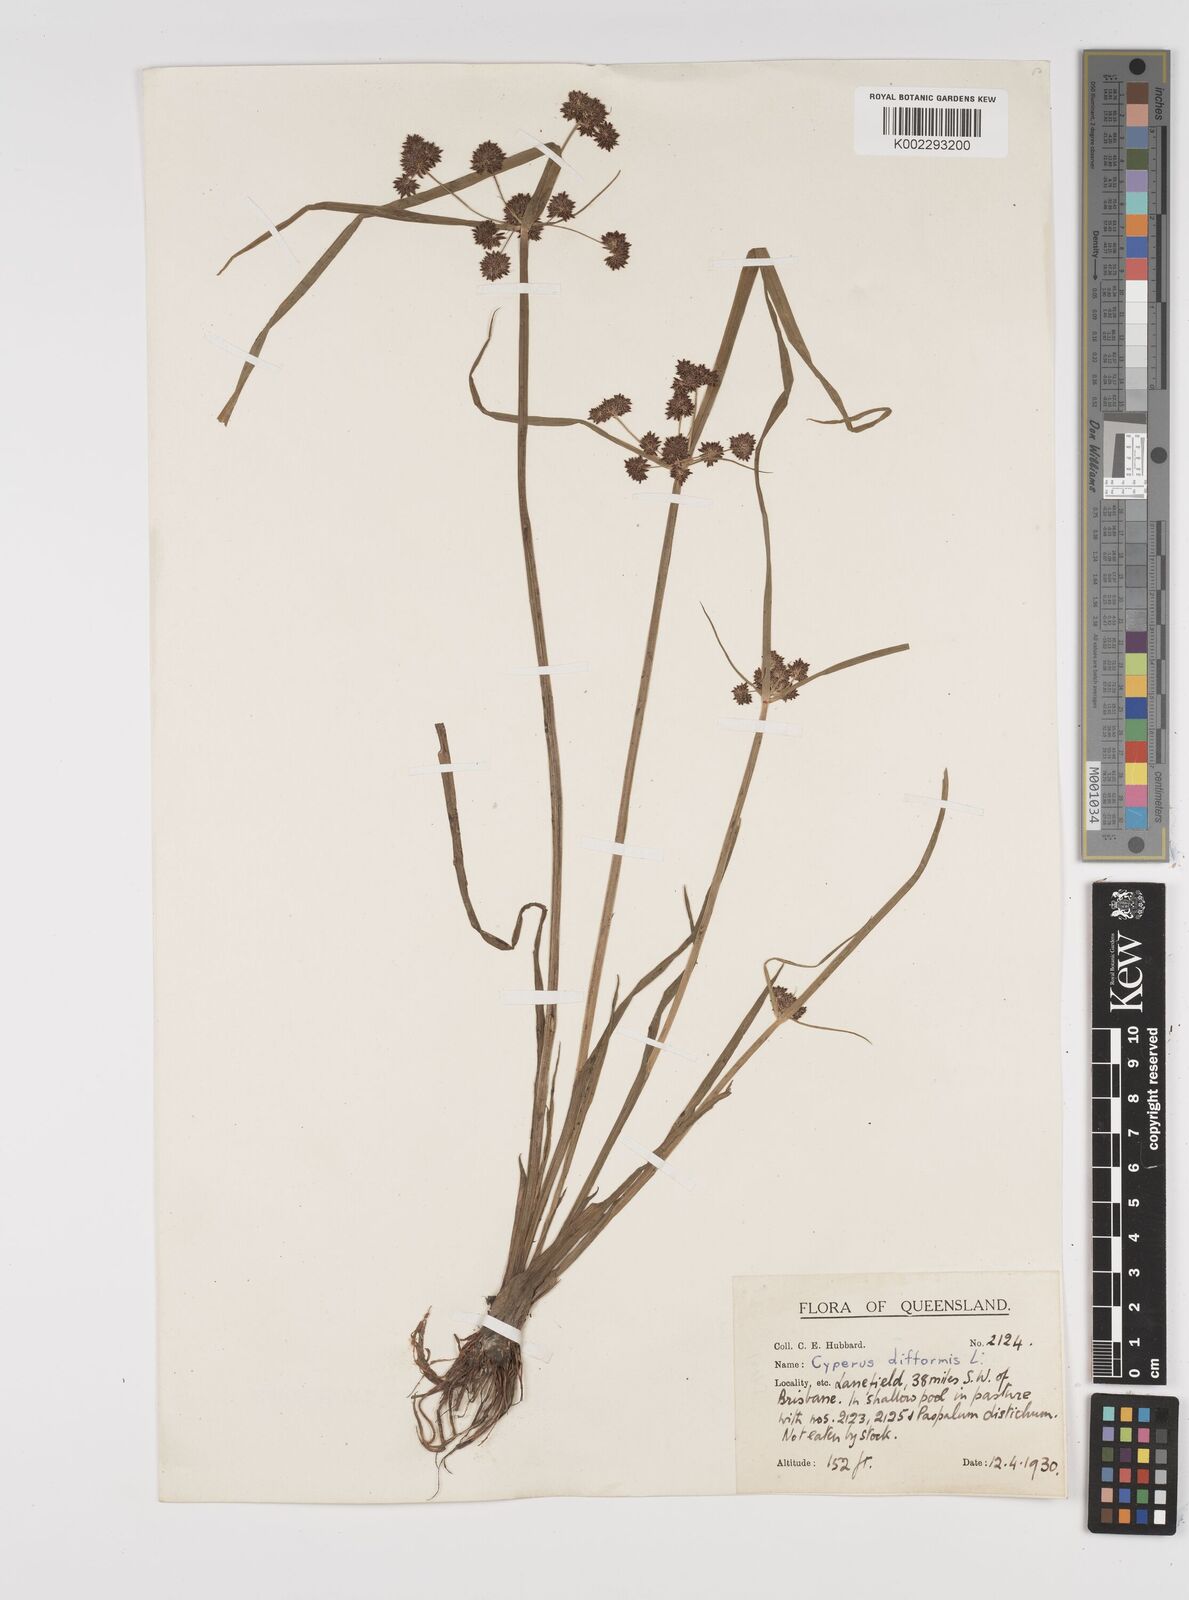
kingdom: Plantae
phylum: Tracheophyta
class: Liliopsida
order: Poales
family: Cyperaceae
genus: Cyperus
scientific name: Cyperus difformis
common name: Variable flatsedge
